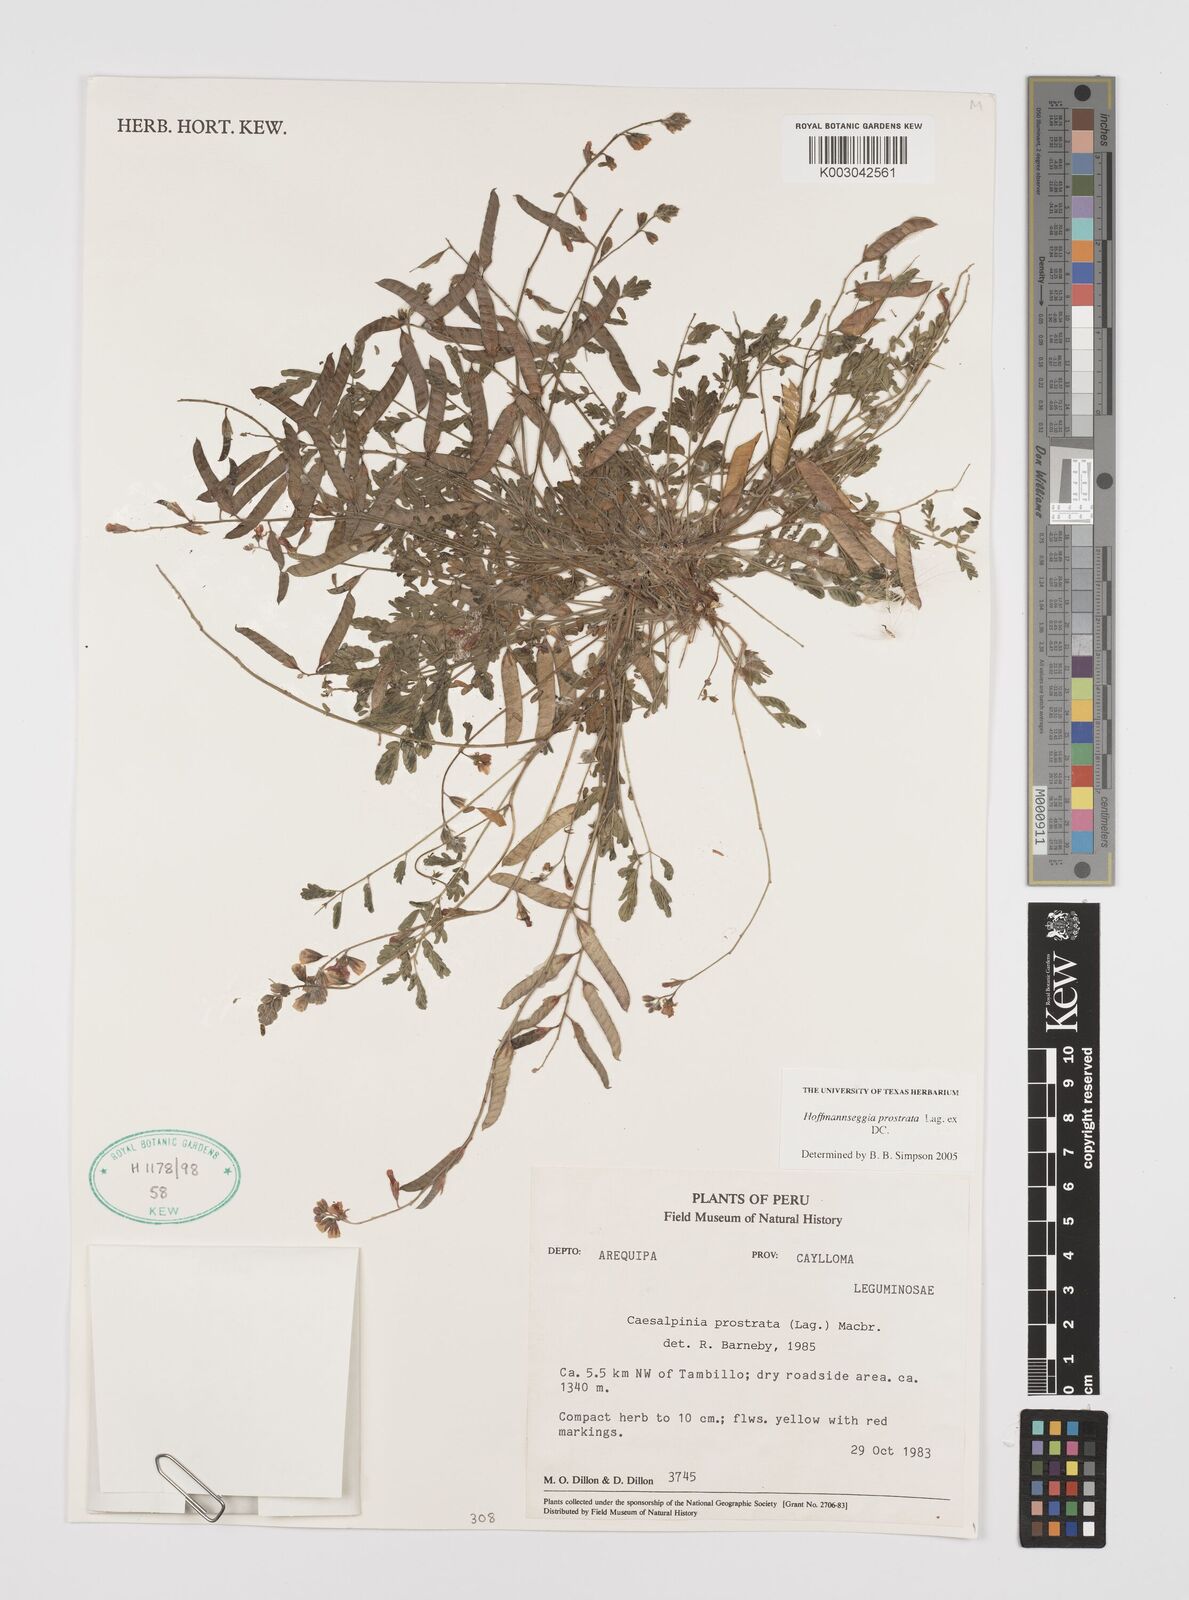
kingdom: Plantae
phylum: Tracheophyta
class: Magnoliopsida
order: Fabales
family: Fabaceae
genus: Hoffmannseggia
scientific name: Hoffmannseggia prostrata
